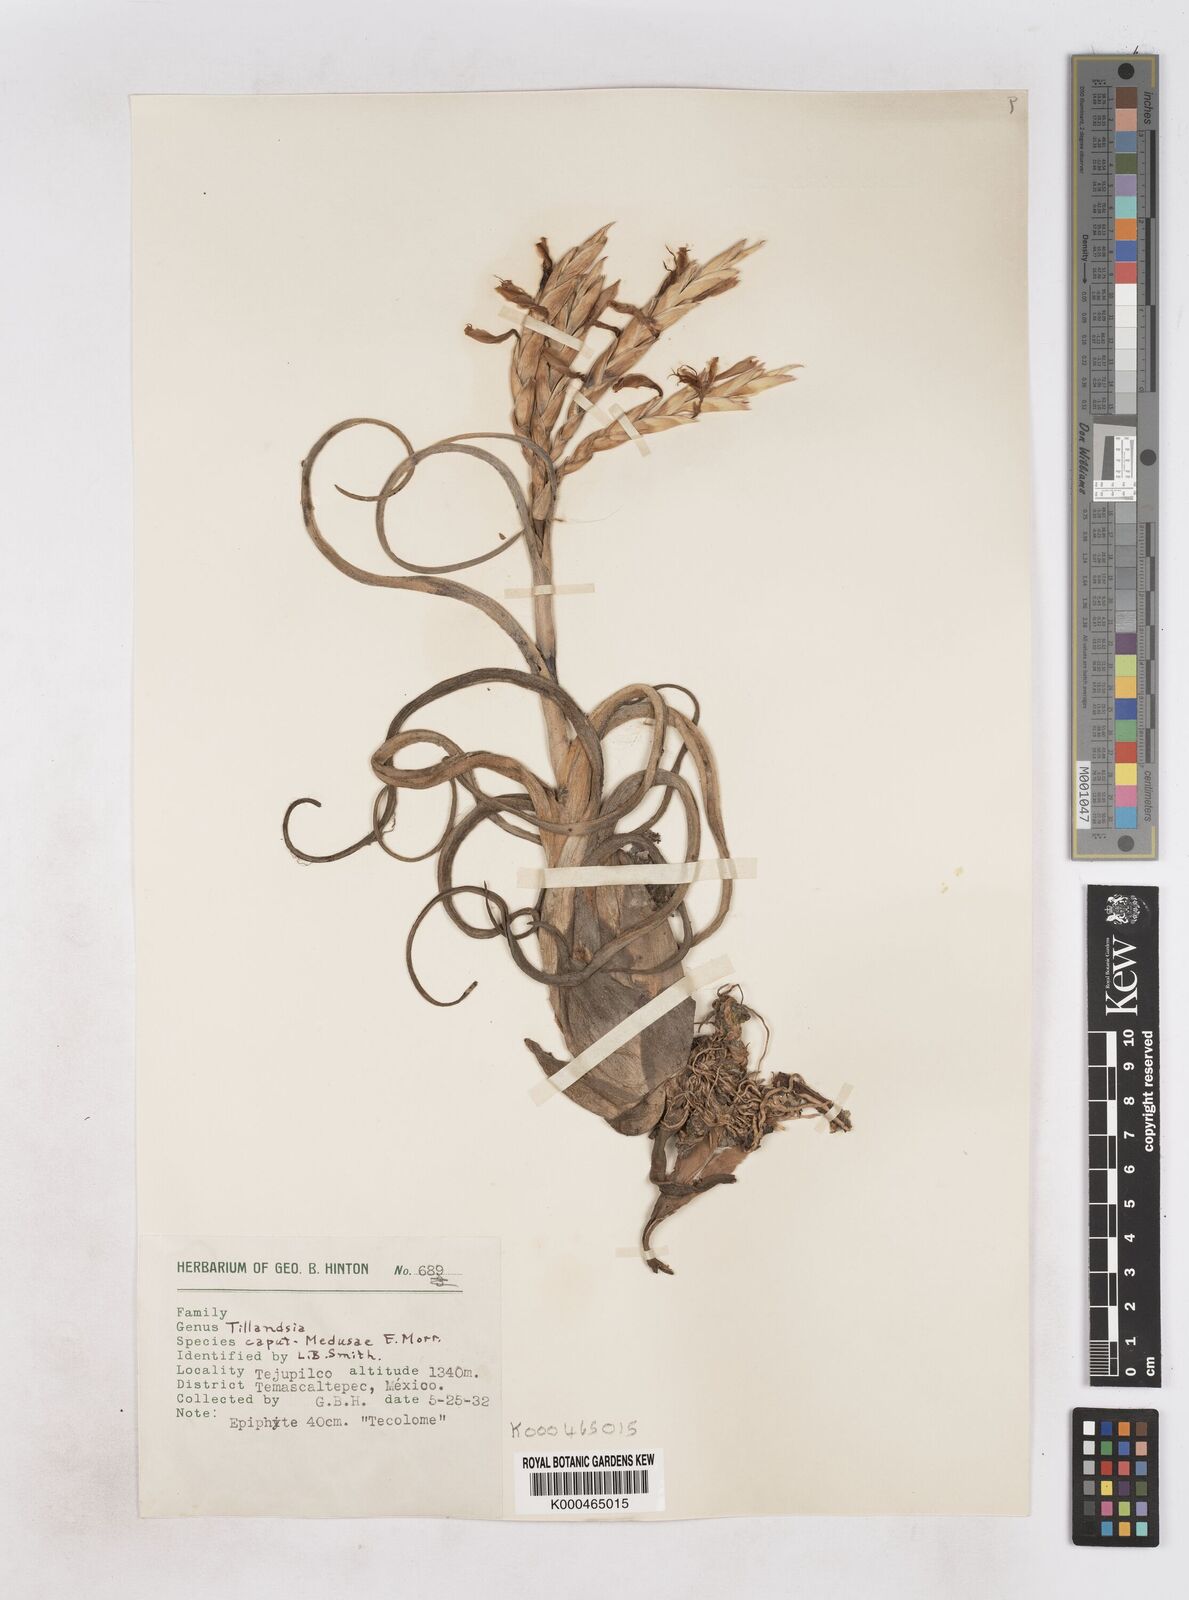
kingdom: Plantae
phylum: Tracheophyta
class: Liliopsida
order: Poales
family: Bromeliaceae
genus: Tillandsia
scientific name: Tillandsia caput-medusae
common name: Octopus plant
